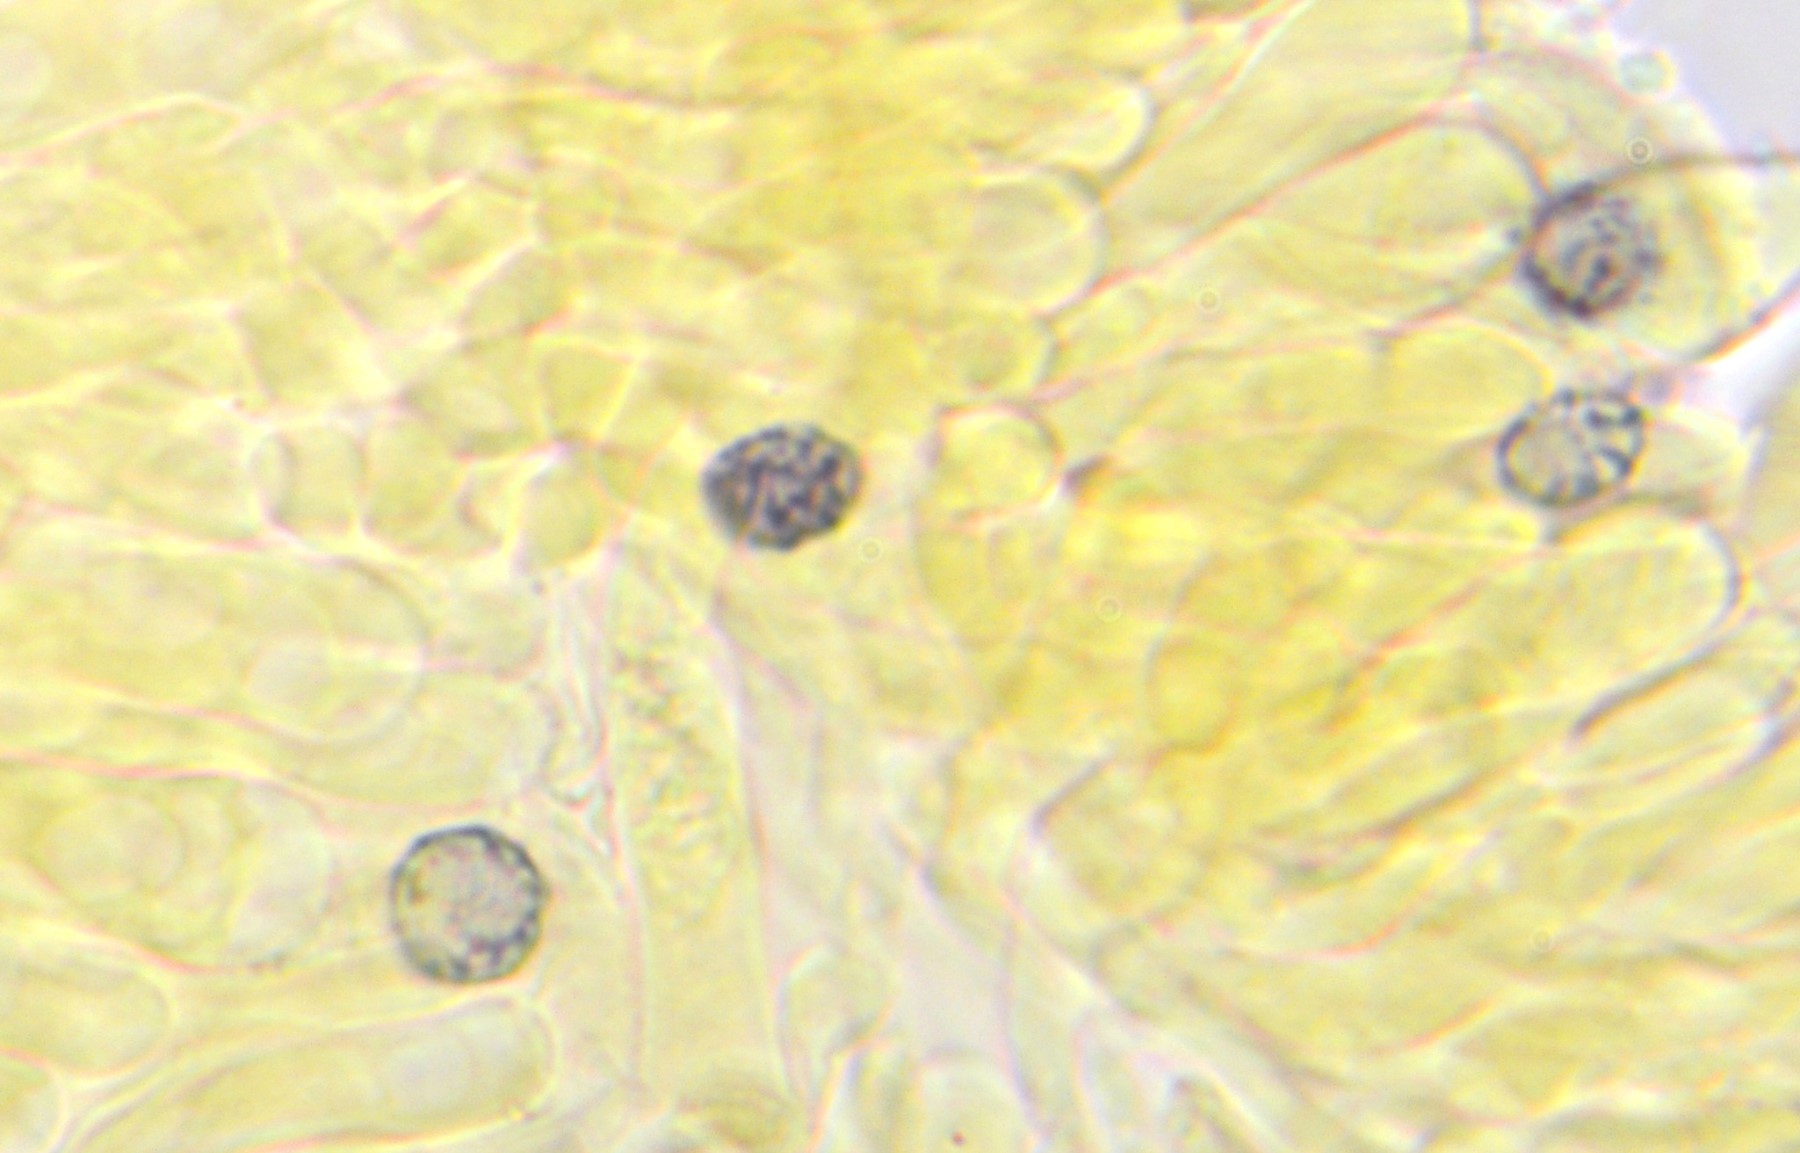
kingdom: Fungi
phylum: Basidiomycota
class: Agaricomycetes
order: Russulales
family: Russulaceae
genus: Russula
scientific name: Russula parazurea
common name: blågrå skørhat
